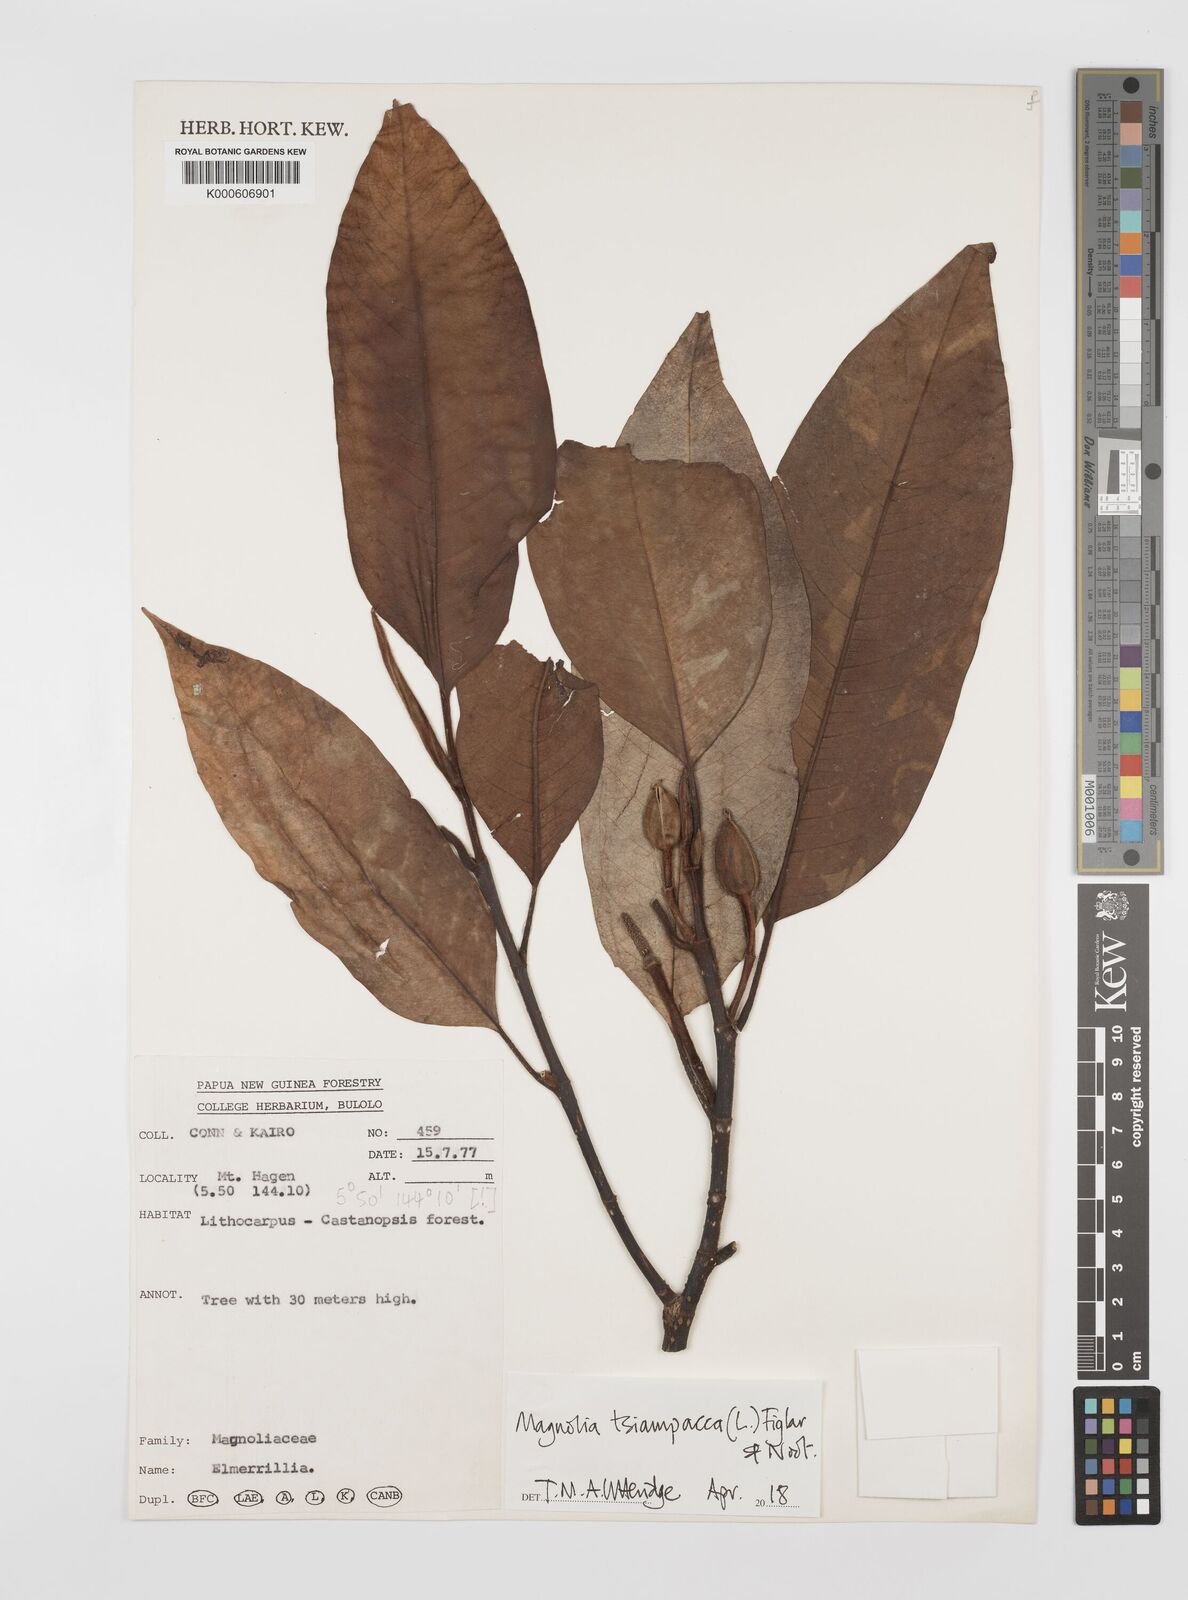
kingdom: Plantae
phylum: Tracheophyta
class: Magnoliopsida
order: Magnoliales
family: Magnoliaceae
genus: Magnolia
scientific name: Magnolia tsiampacca
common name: Wau-beech
